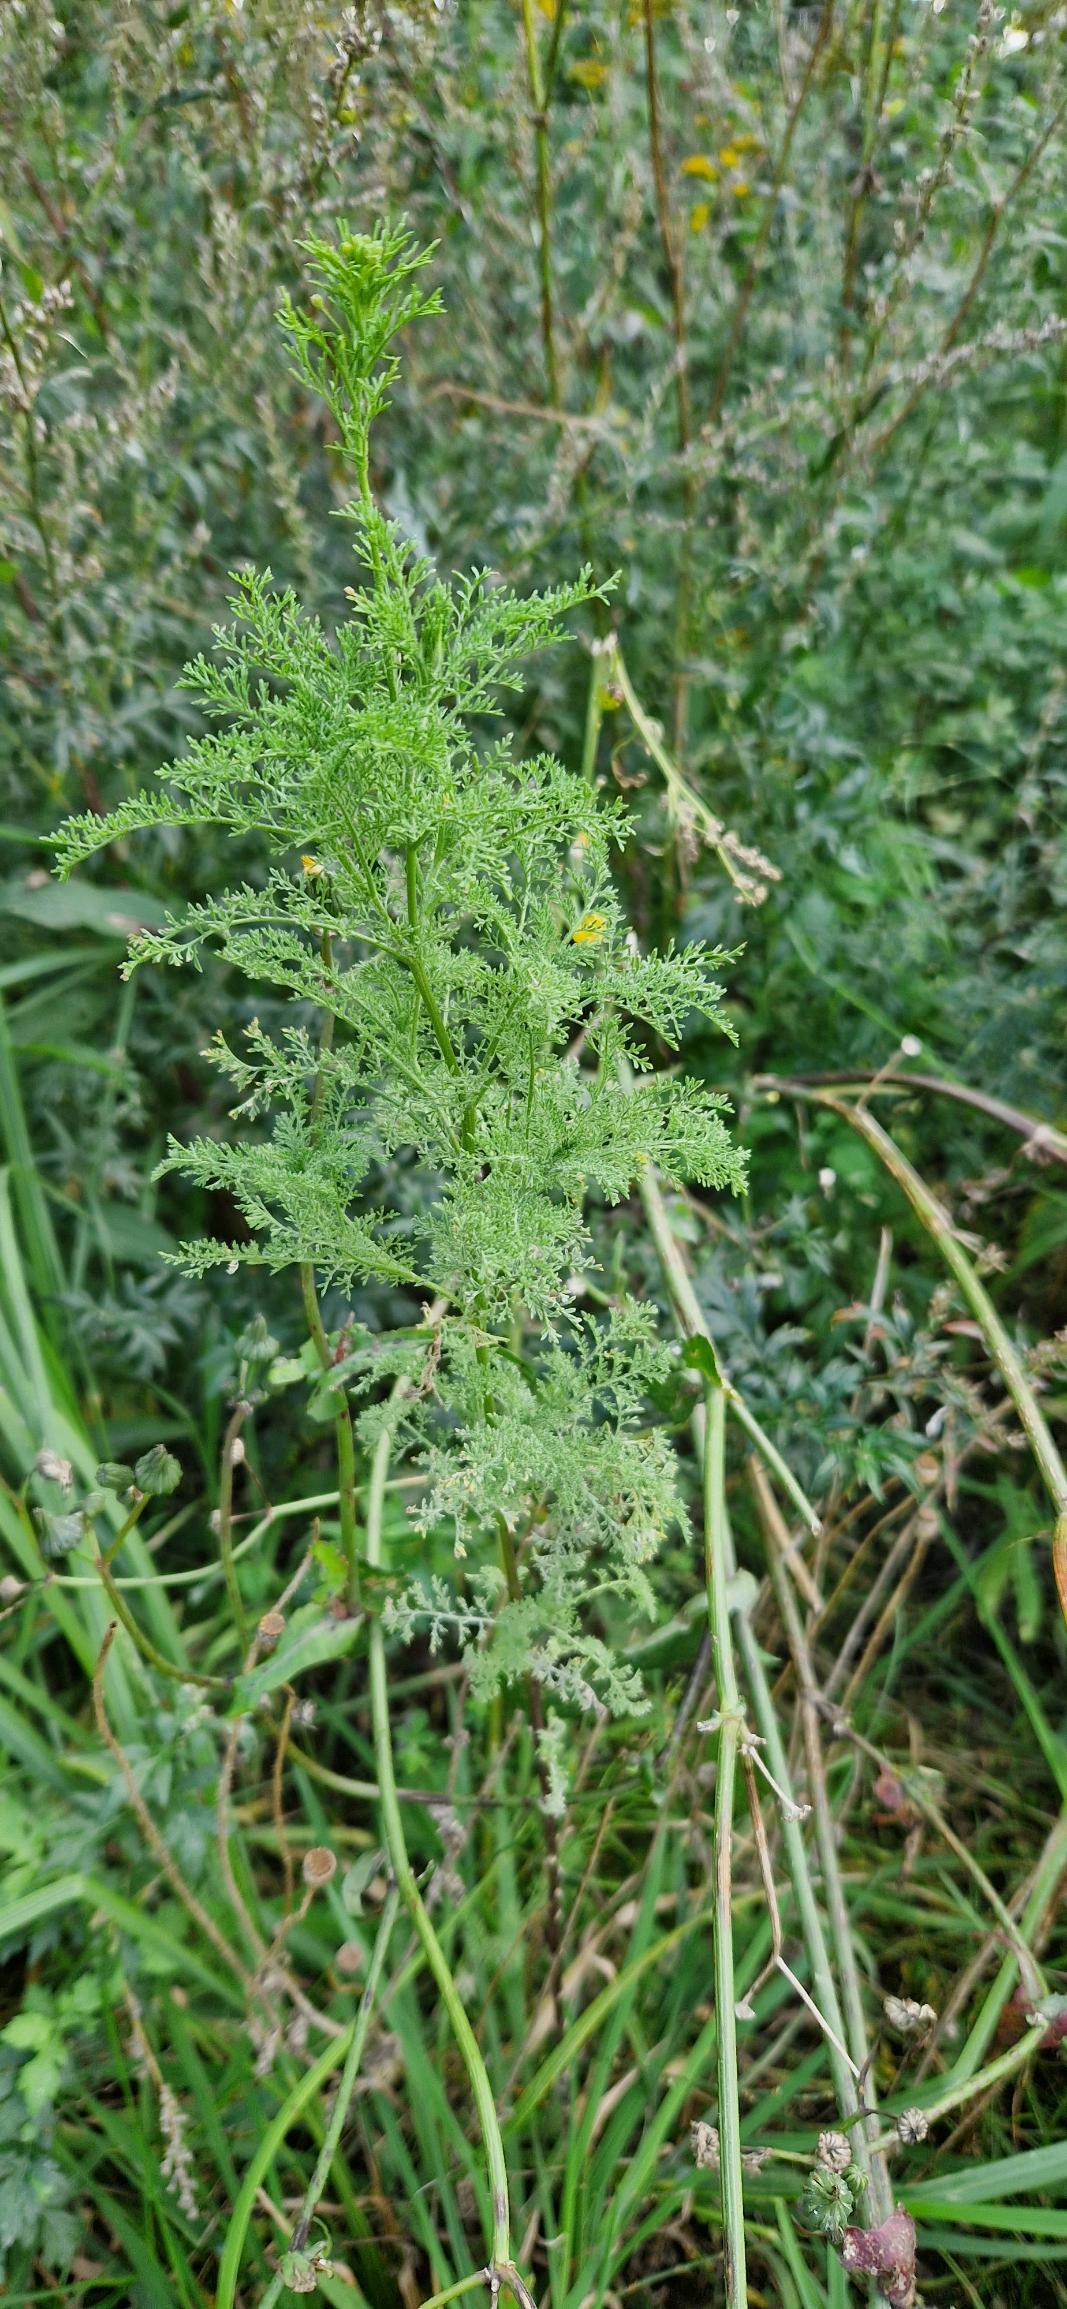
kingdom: Plantae
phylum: Tracheophyta
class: Magnoliopsida
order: Brassicales
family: Brassicaceae
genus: Descurainia
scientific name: Descurainia sophia
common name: Finbladet vejsennep
